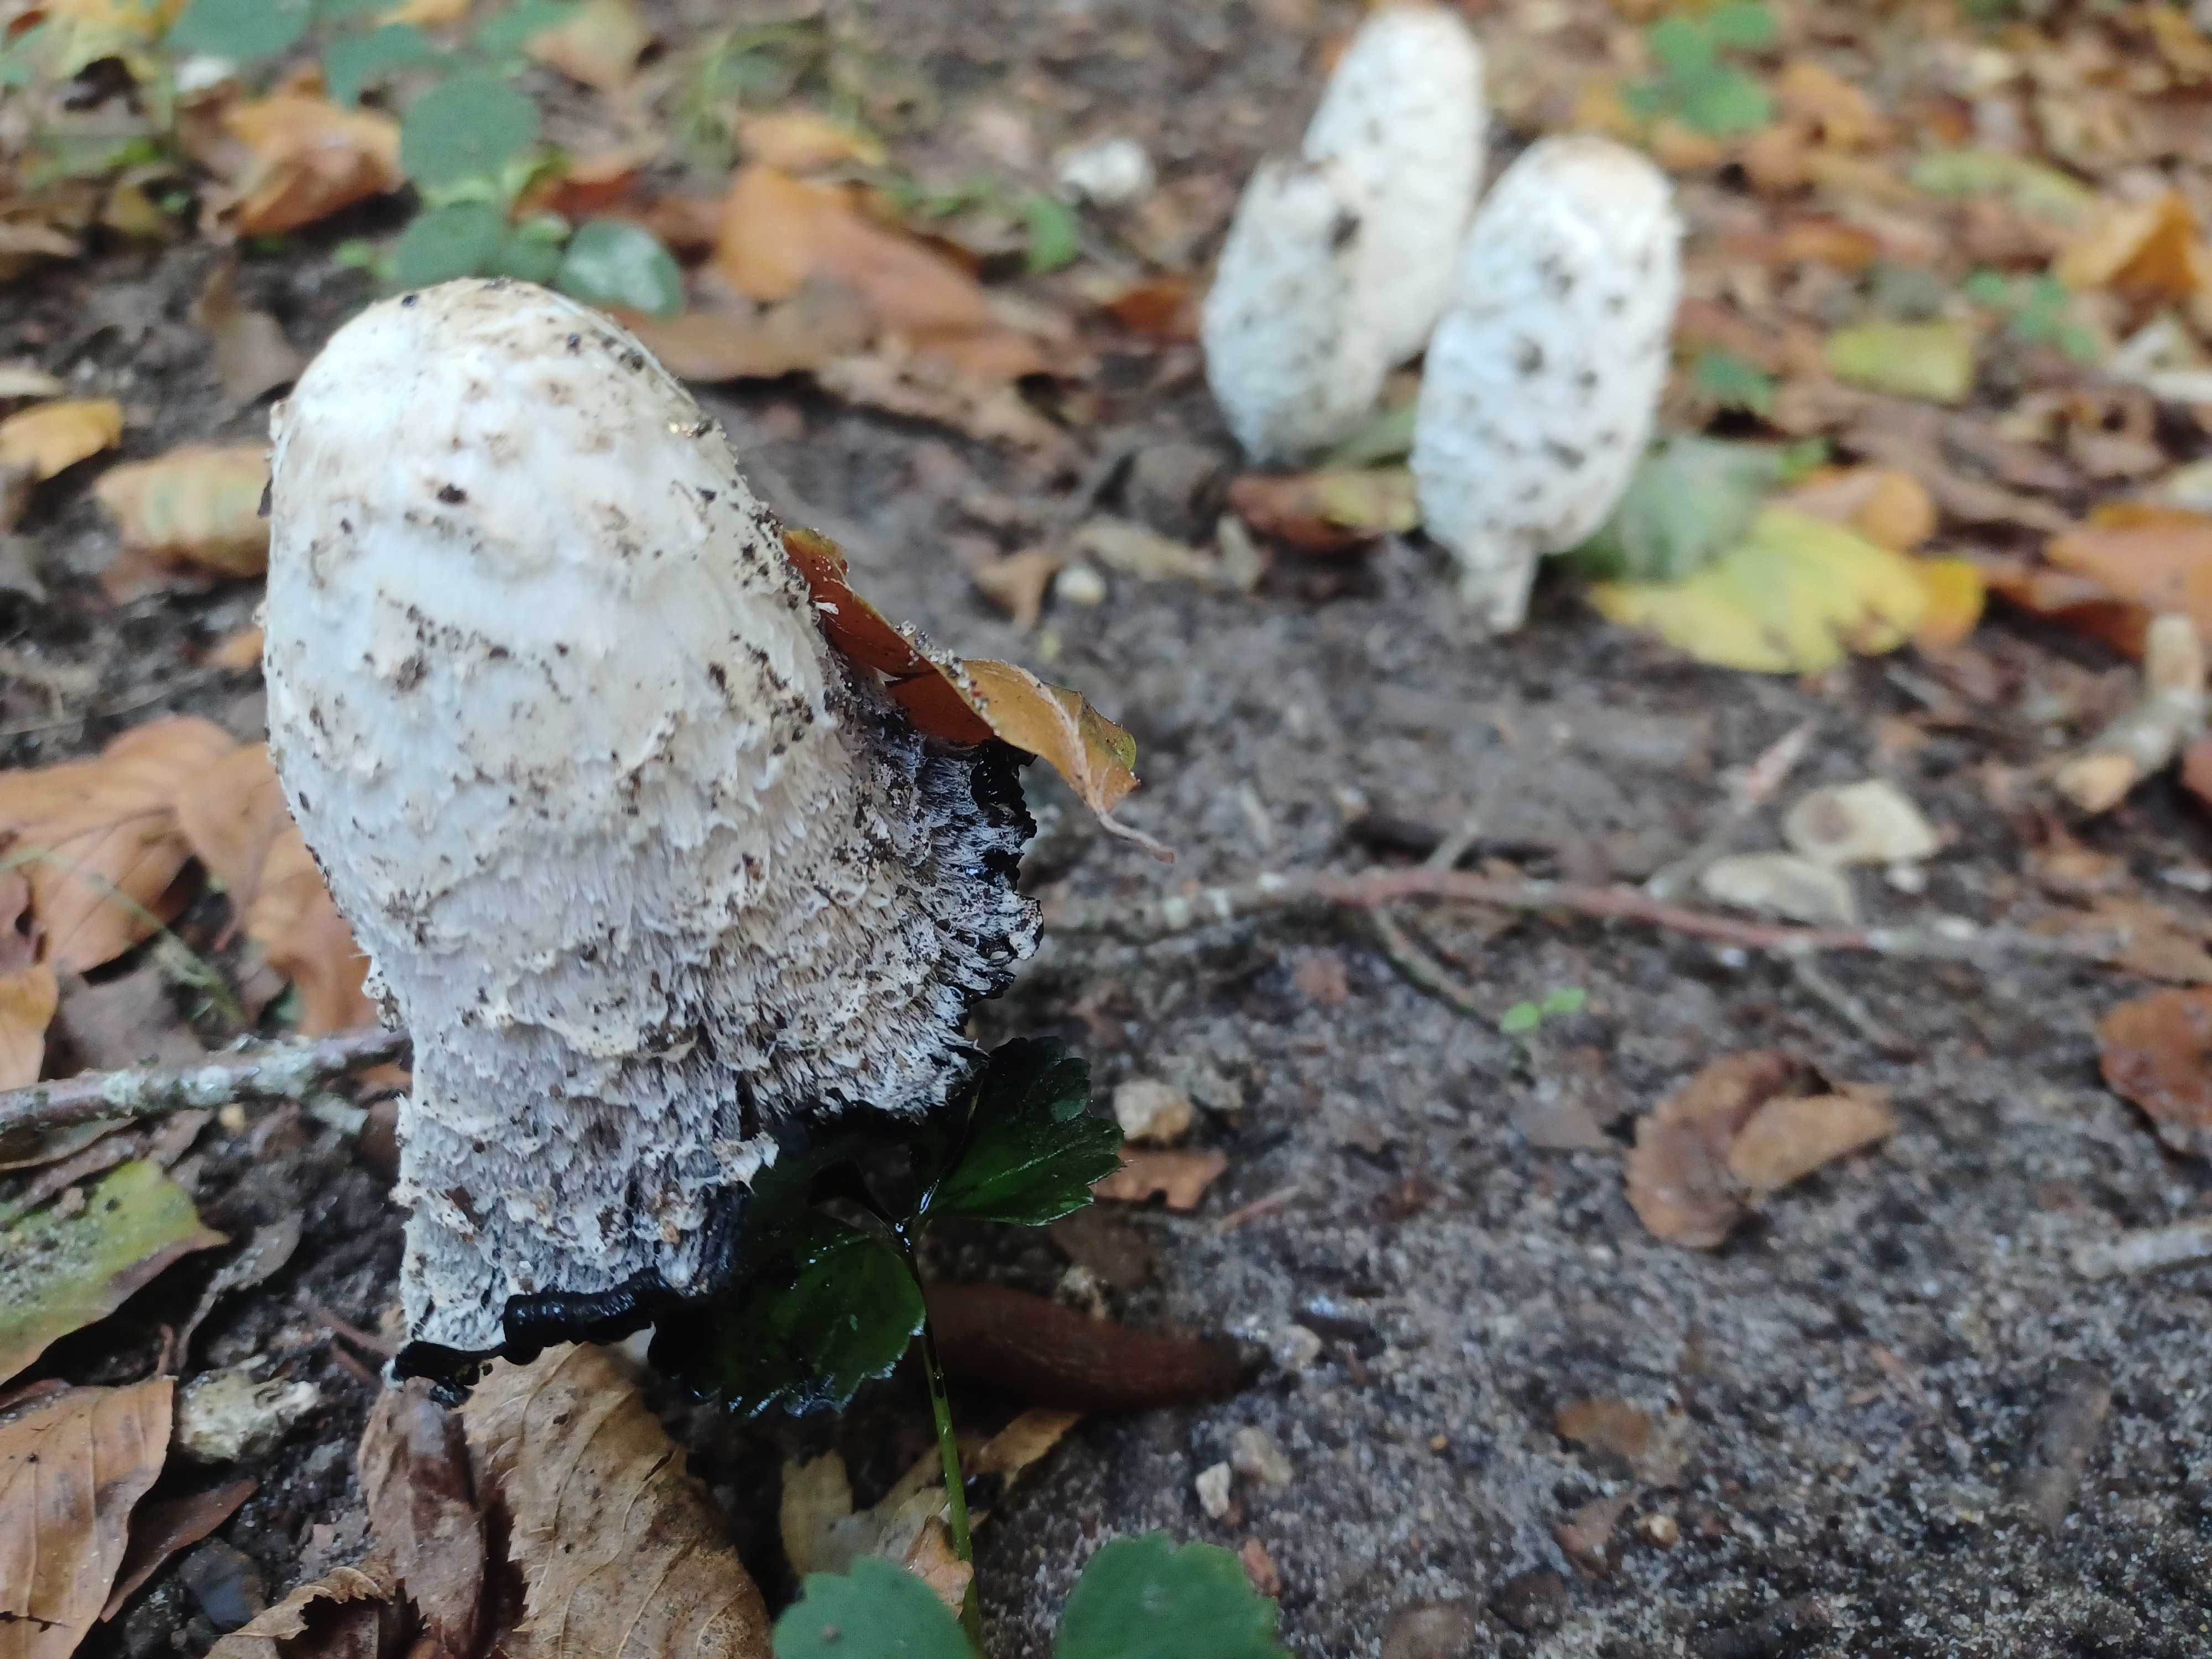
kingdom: Fungi
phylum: Basidiomycota
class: Agaricomycetes
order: Agaricales
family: Agaricaceae
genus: Coprinus
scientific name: Coprinus comatus
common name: stor parykhat
